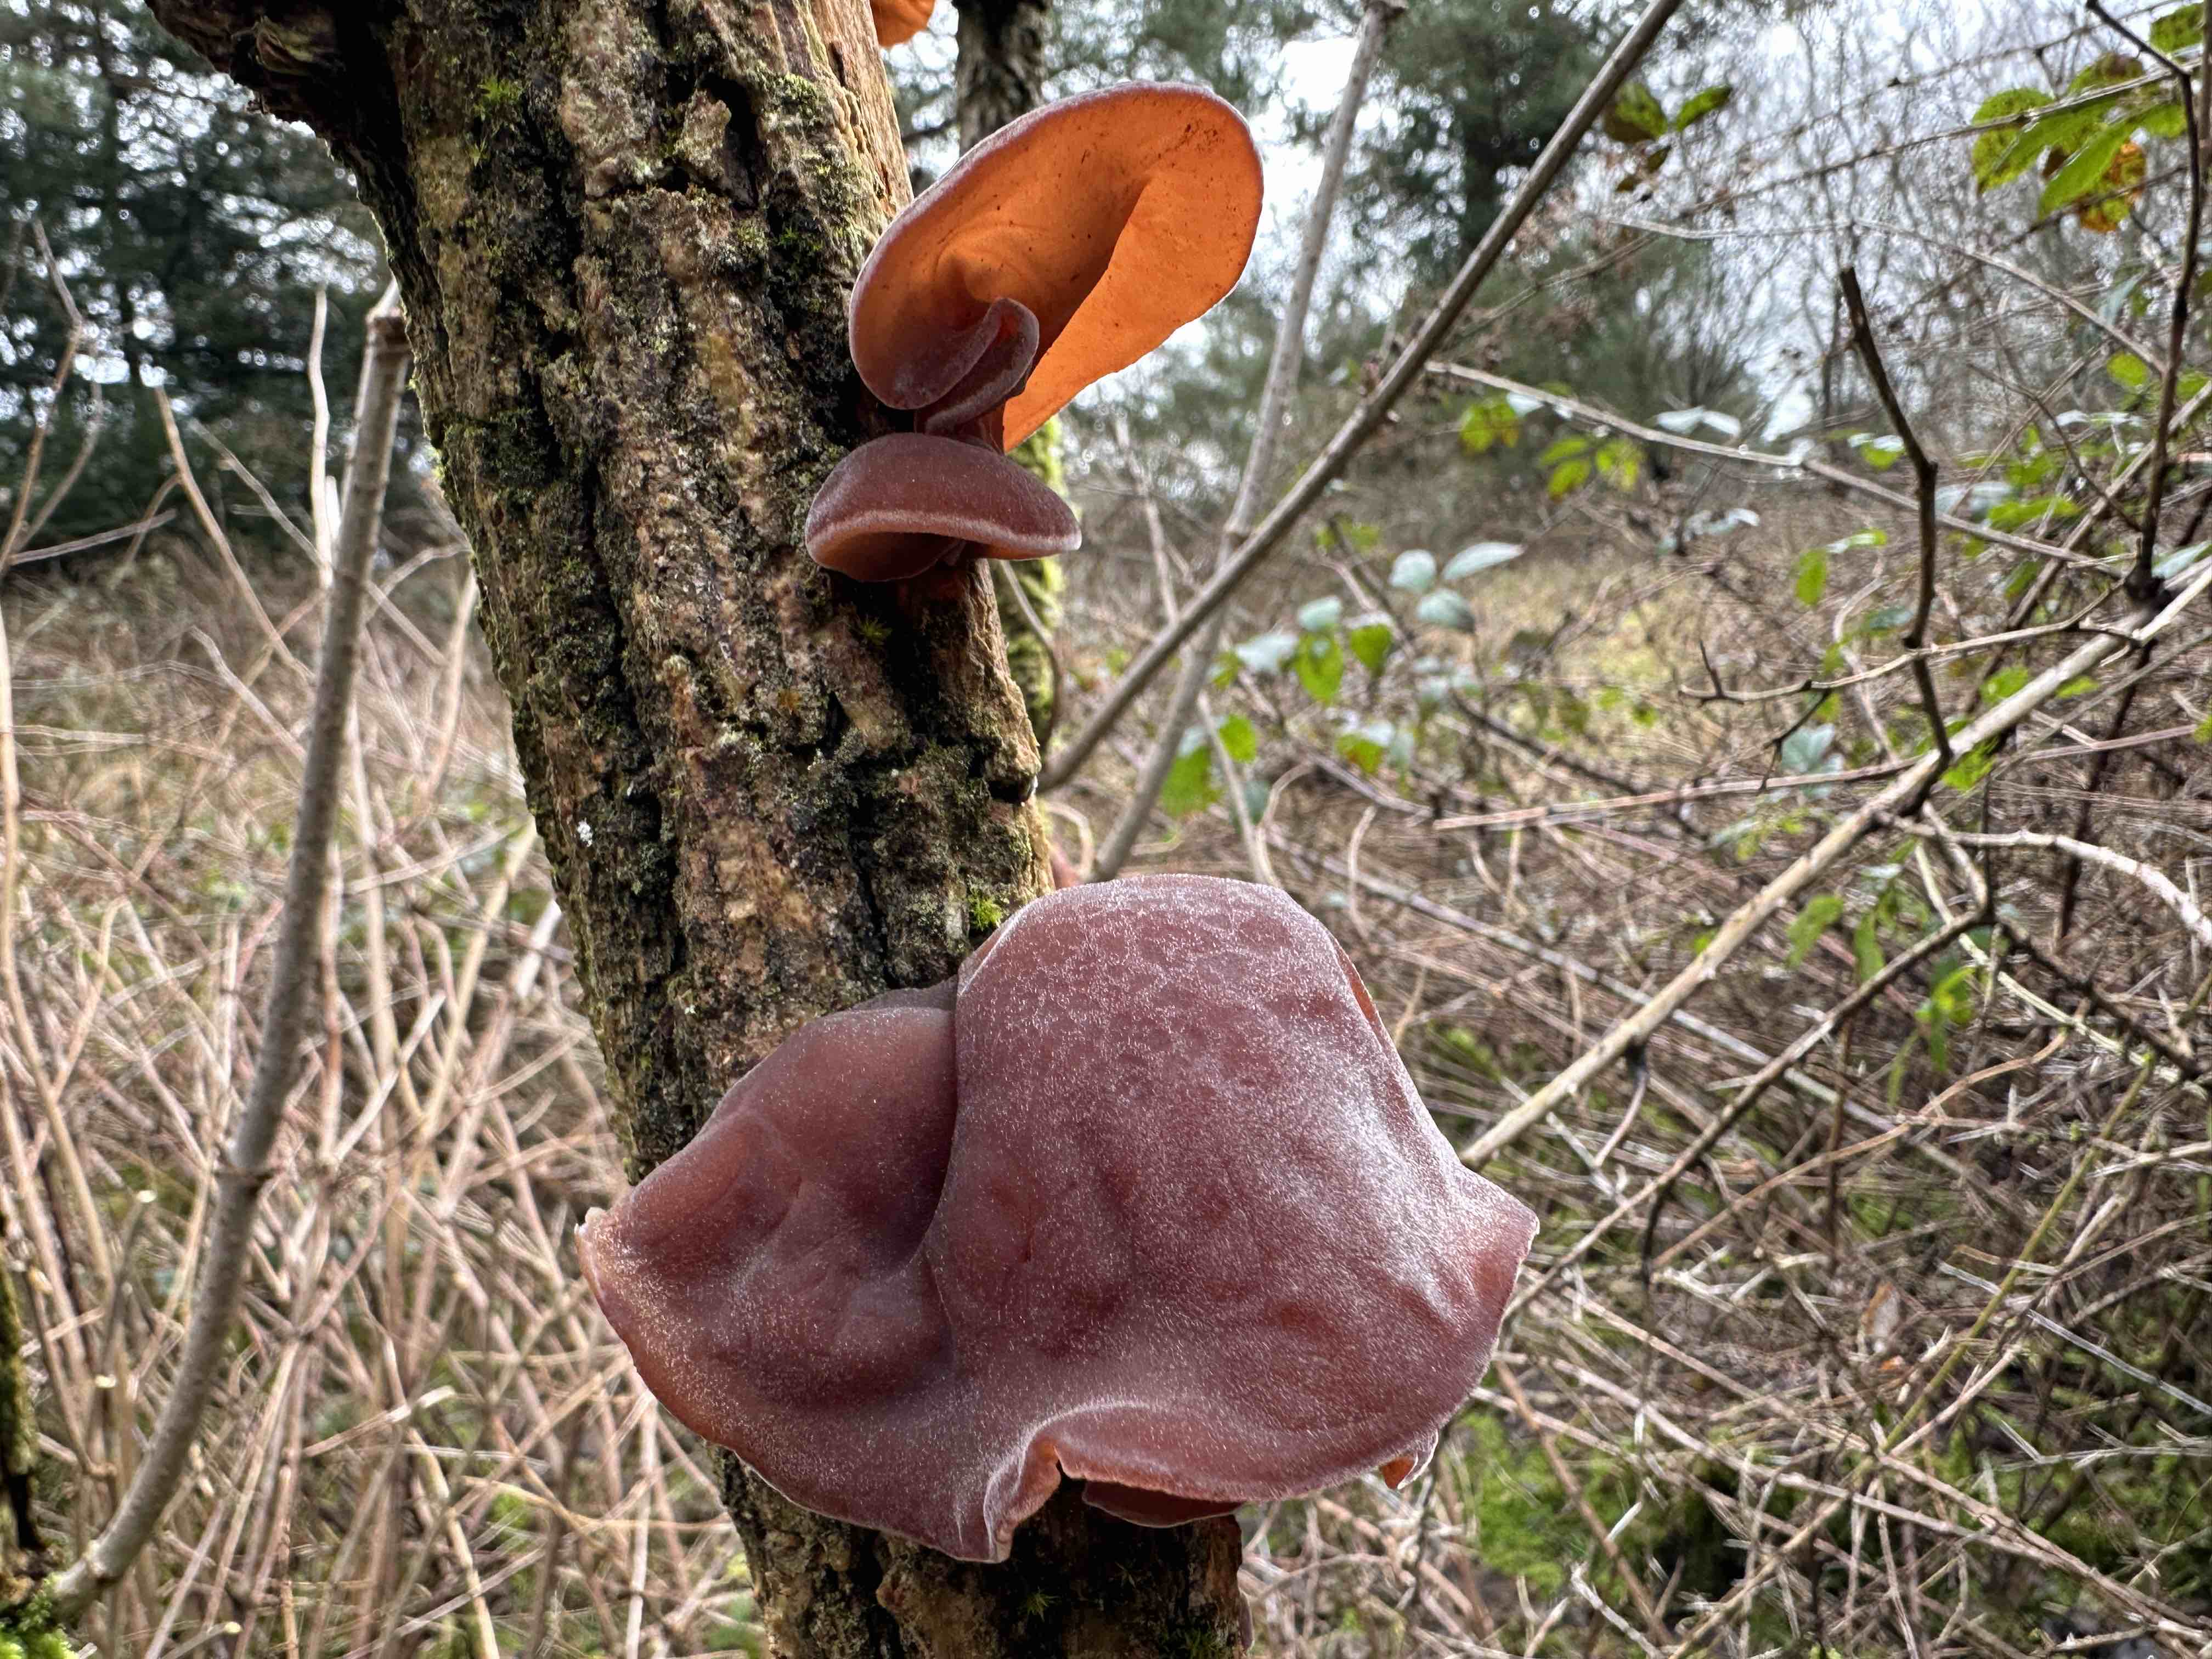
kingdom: Fungi
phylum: Basidiomycota
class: Agaricomycetes
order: Auriculariales
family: Auriculariaceae
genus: Auricularia
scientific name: Auricularia auricula-judae
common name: almindelig judasøre
